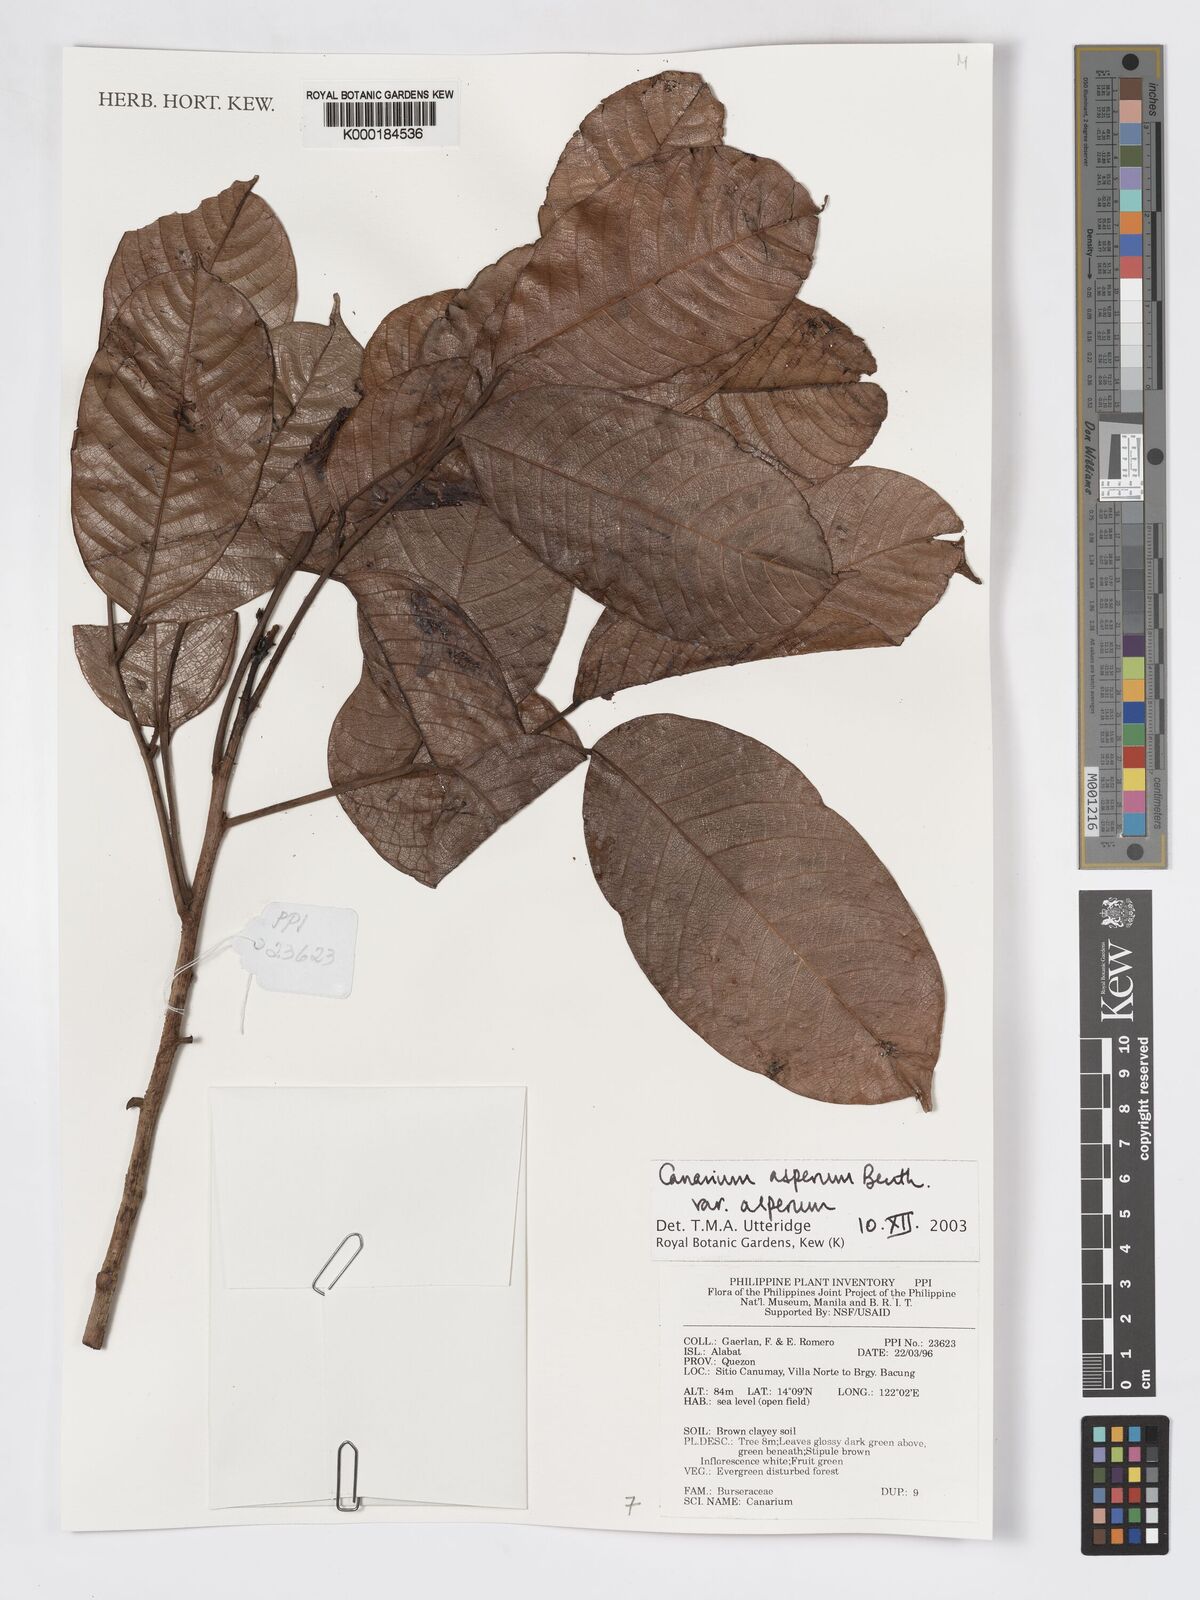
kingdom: Plantae
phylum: Tracheophyta
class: Magnoliopsida
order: Sapindales
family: Burseraceae
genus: Canarium
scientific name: Canarium asperum
